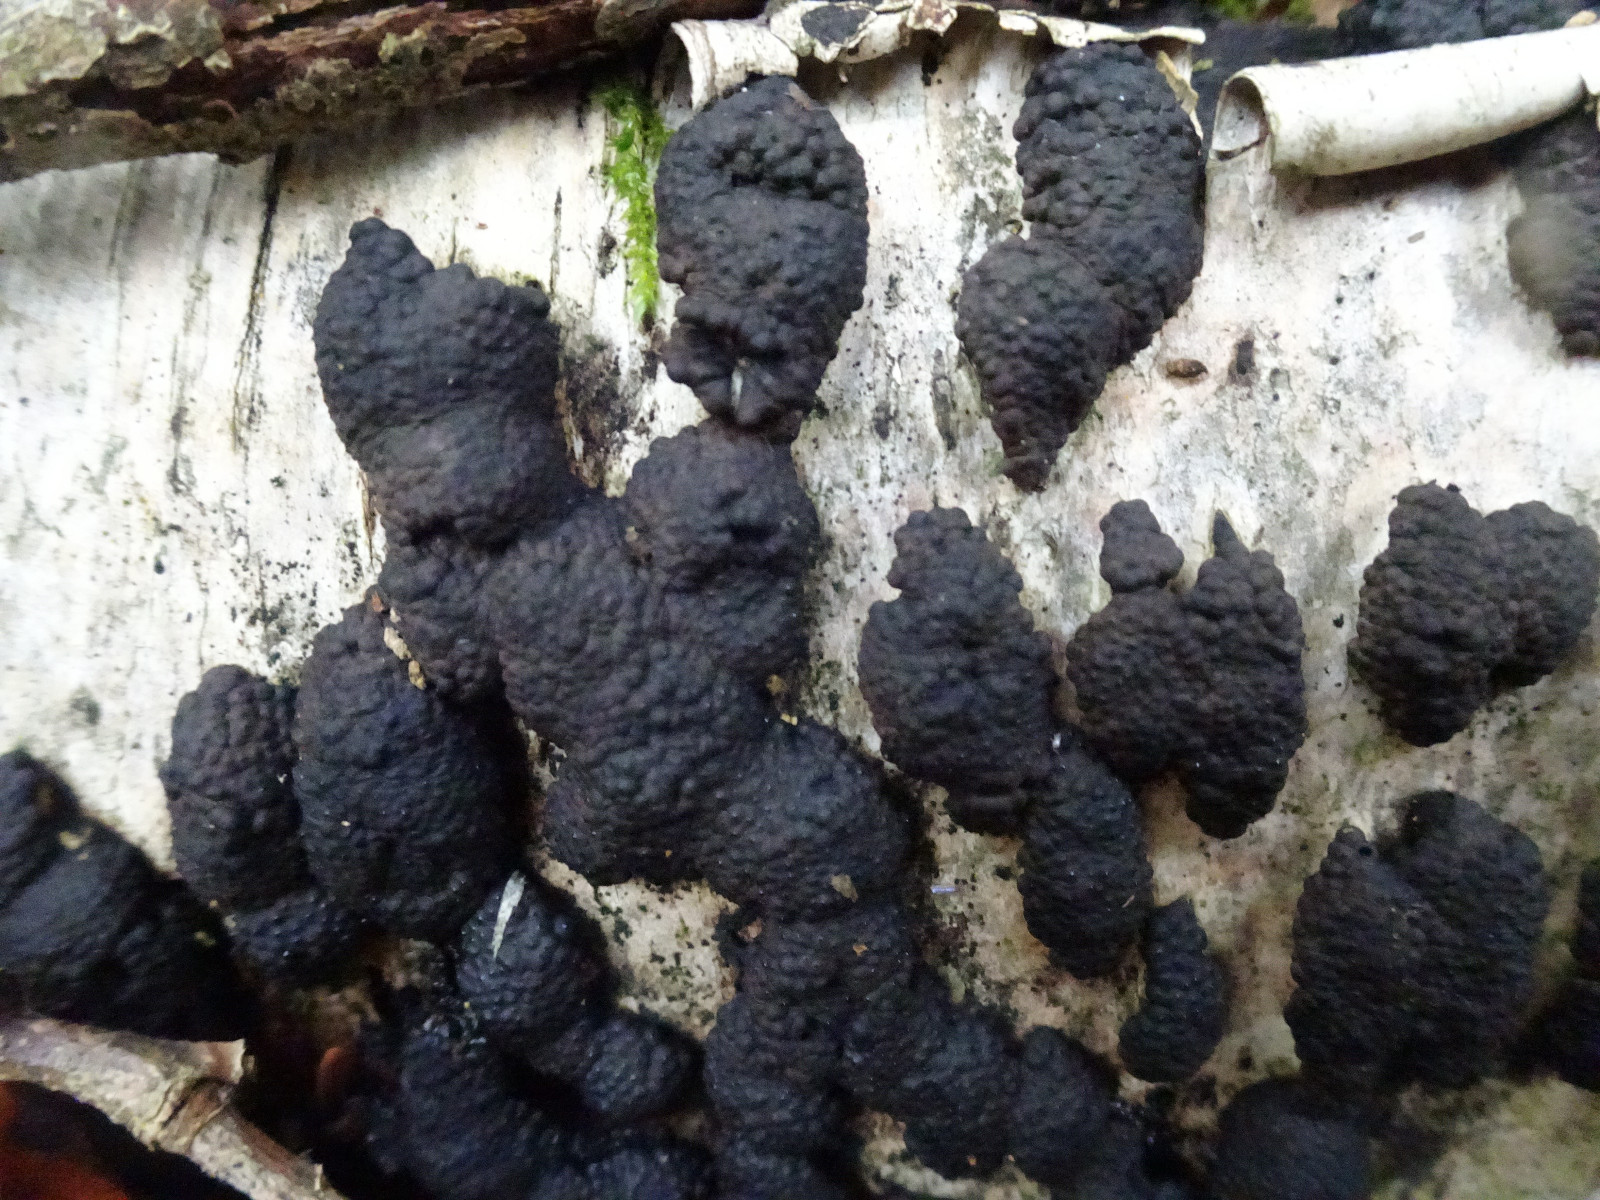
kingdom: Fungi
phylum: Ascomycota
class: Sordariomycetes
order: Xylariales
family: Hypoxylaceae
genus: Jackrogersella
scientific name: Jackrogersella multiformis
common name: foranderlig kulbær
